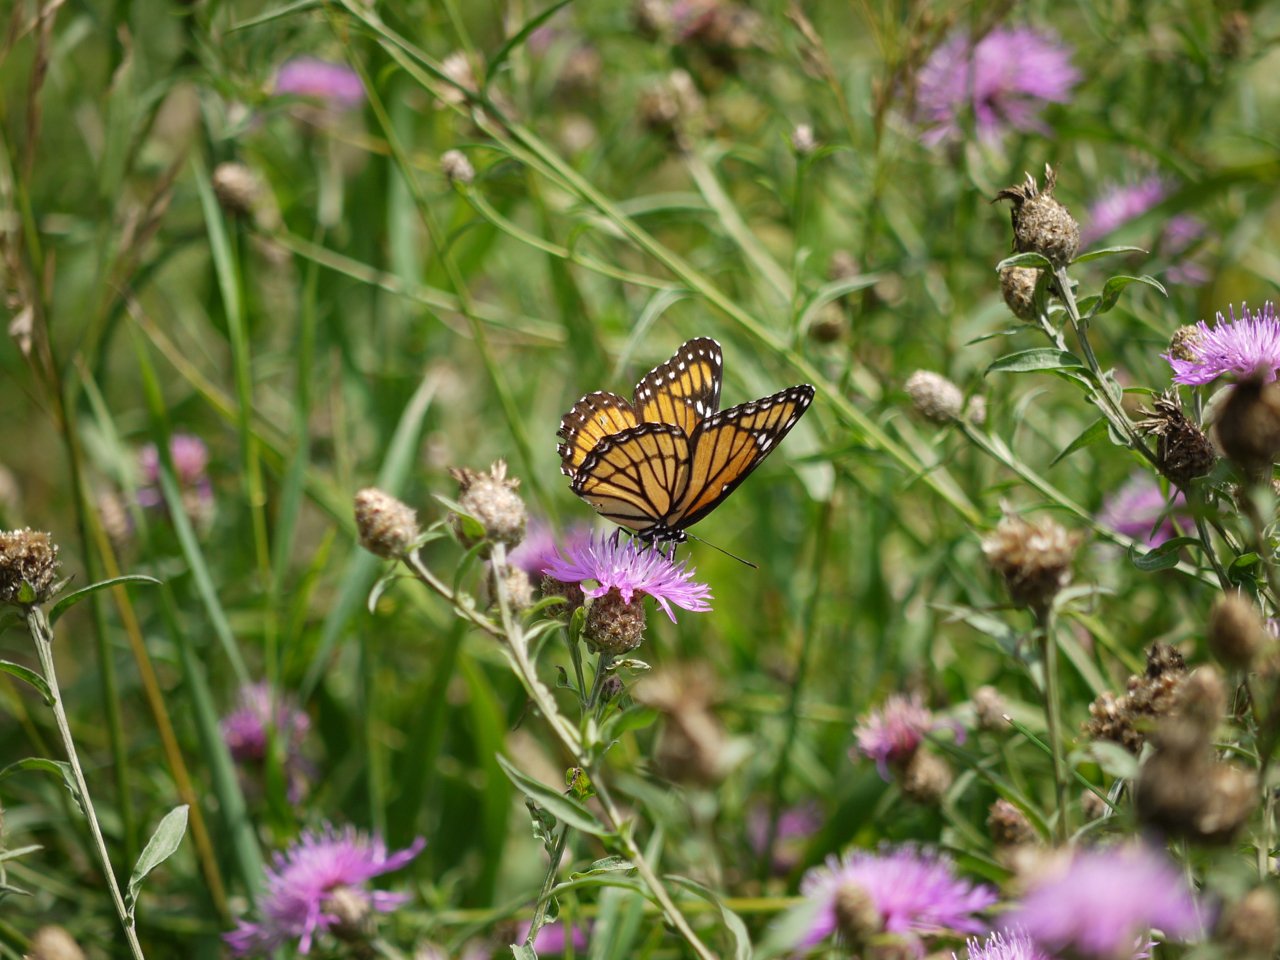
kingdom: Animalia
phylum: Arthropoda
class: Insecta
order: Lepidoptera
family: Nymphalidae
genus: Limenitis
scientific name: Limenitis archippus
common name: Viceroy
